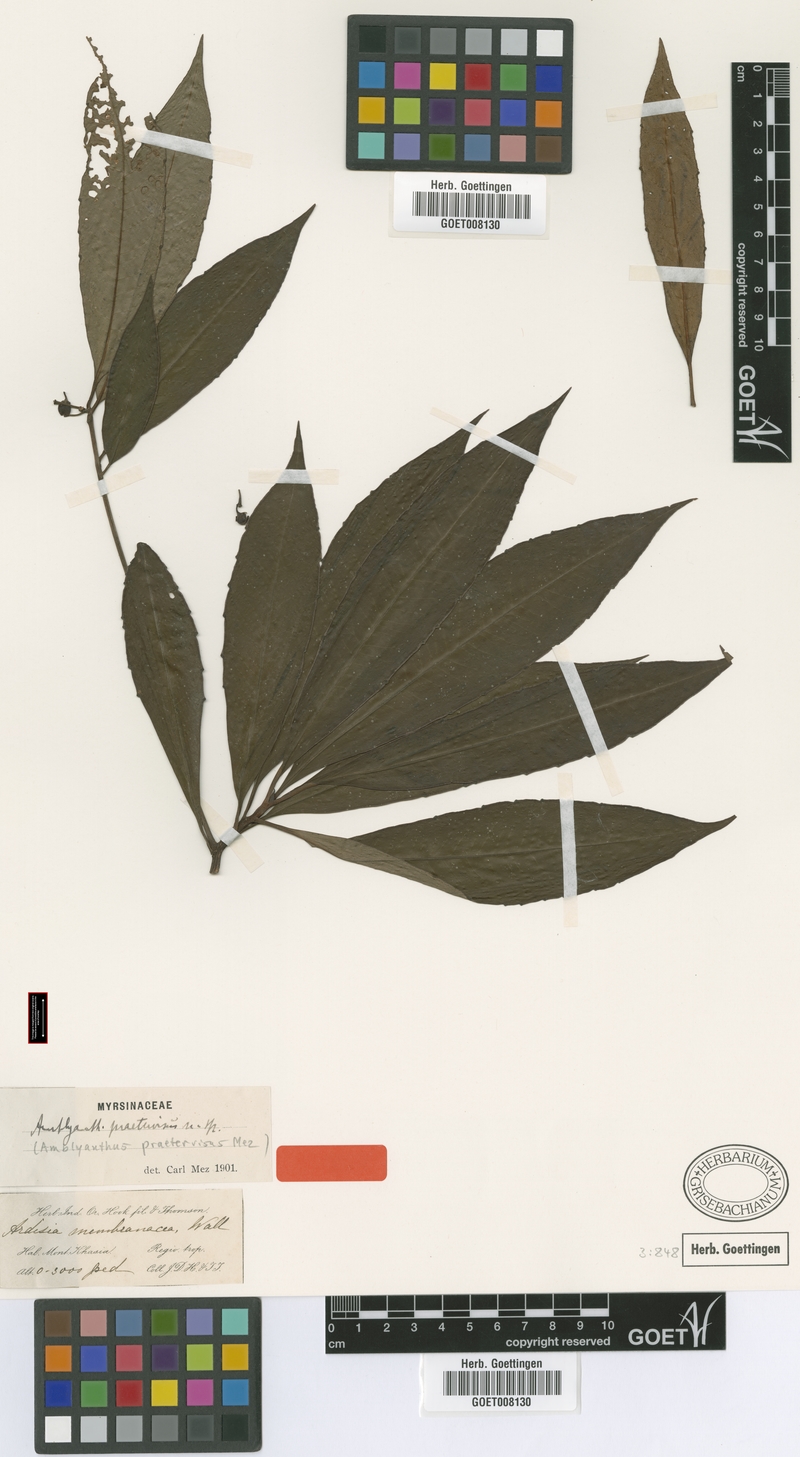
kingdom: Plantae
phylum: Tracheophyta
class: Magnoliopsida
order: Ericales
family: Primulaceae
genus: Amblyanthus
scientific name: Amblyanthus praetervisus
